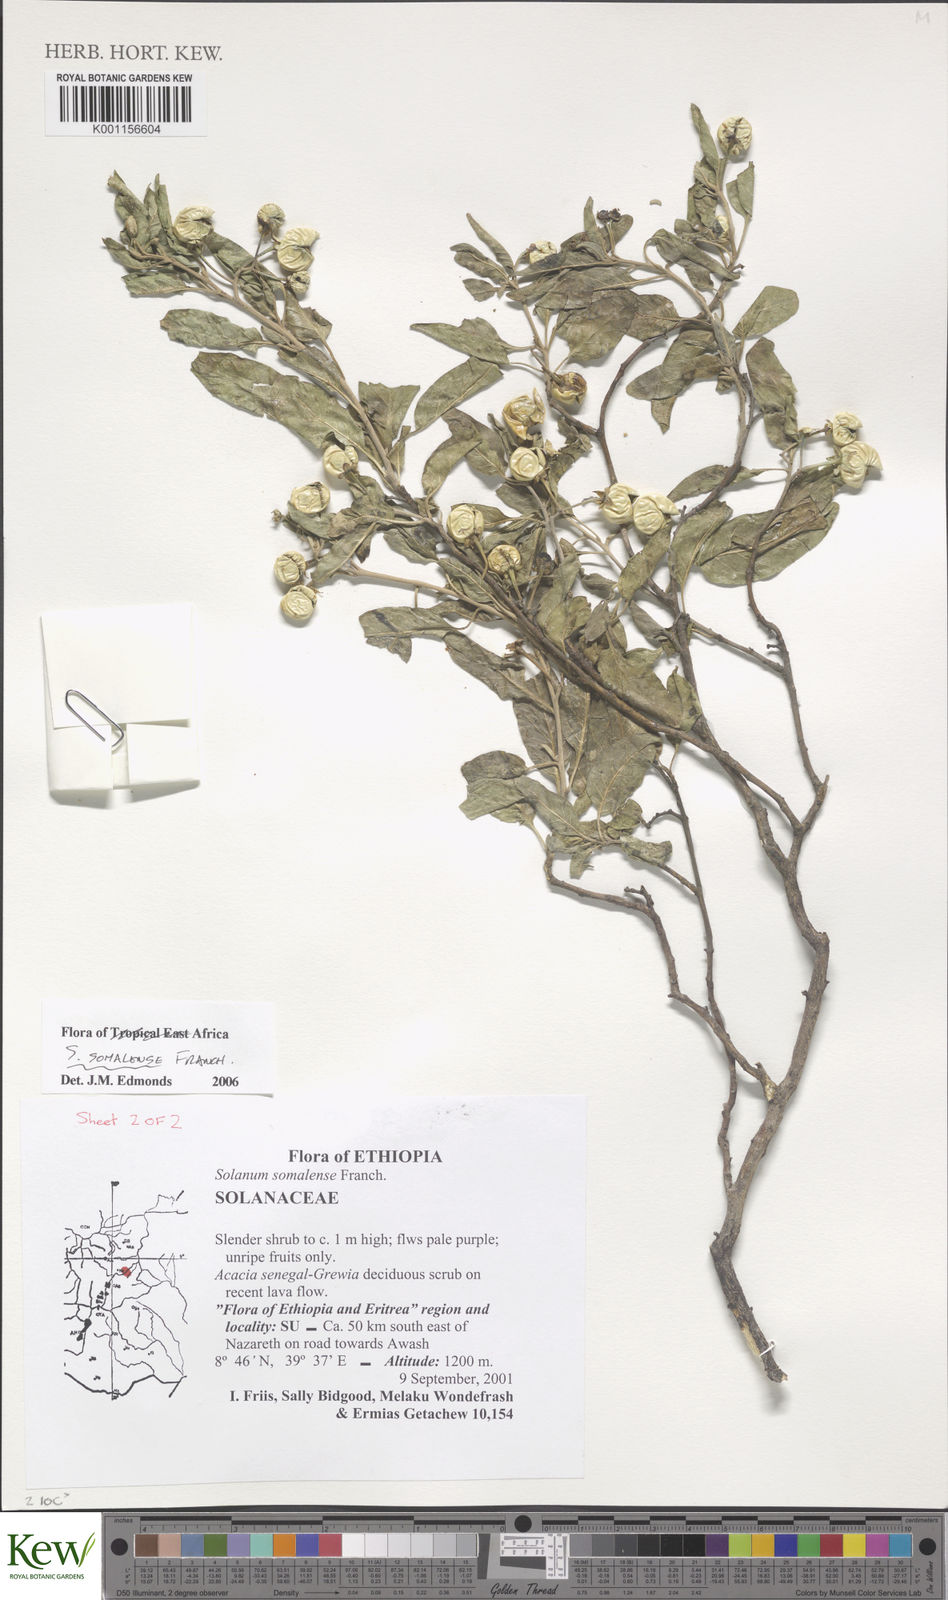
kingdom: Plantae
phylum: Tracheophyta
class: Magnoliopsida
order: Solanales
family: Solanaceae
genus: Solanum
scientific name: Solanum somalense
